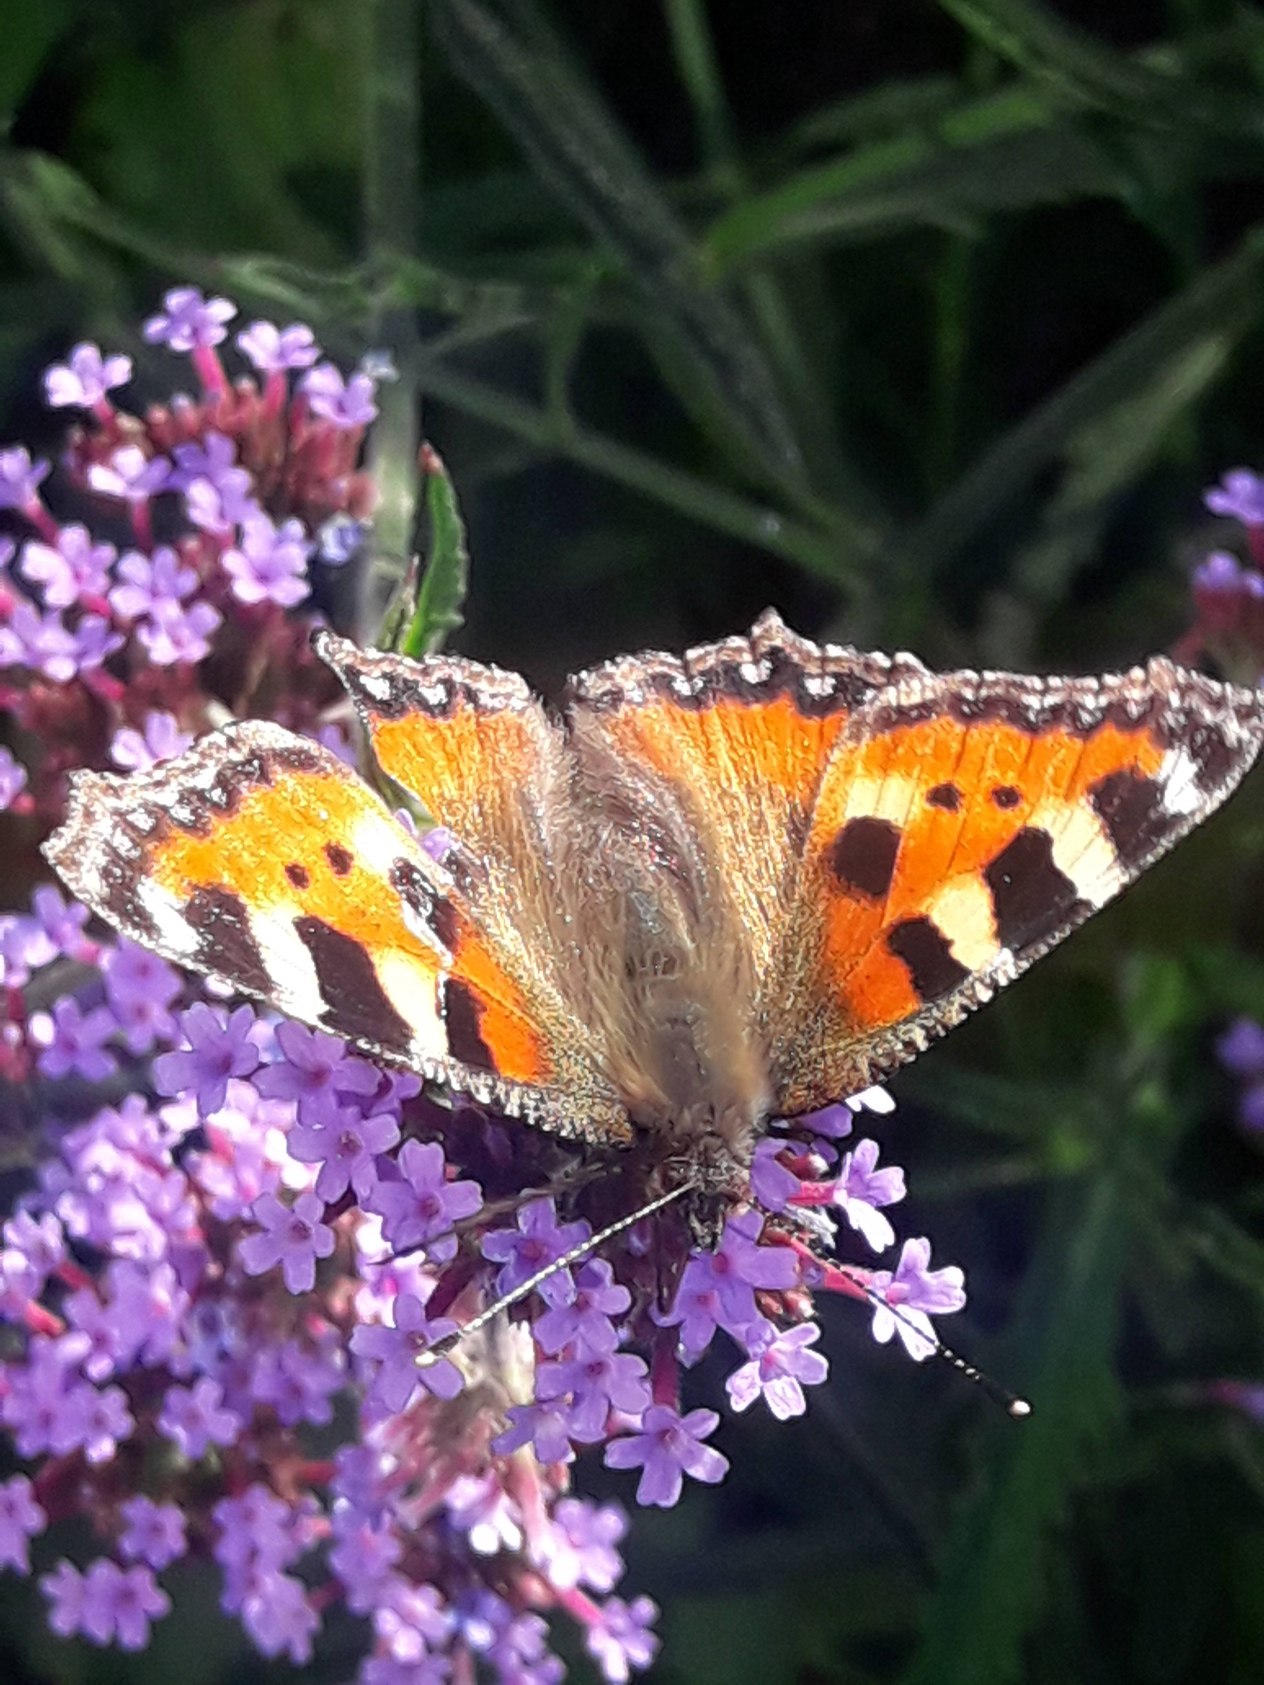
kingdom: Animalia
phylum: Arthropoda
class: Insecta
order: Lepidoptera
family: Nymphalidae
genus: Aglais
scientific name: Aglais urticae
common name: Nældens takvinge
